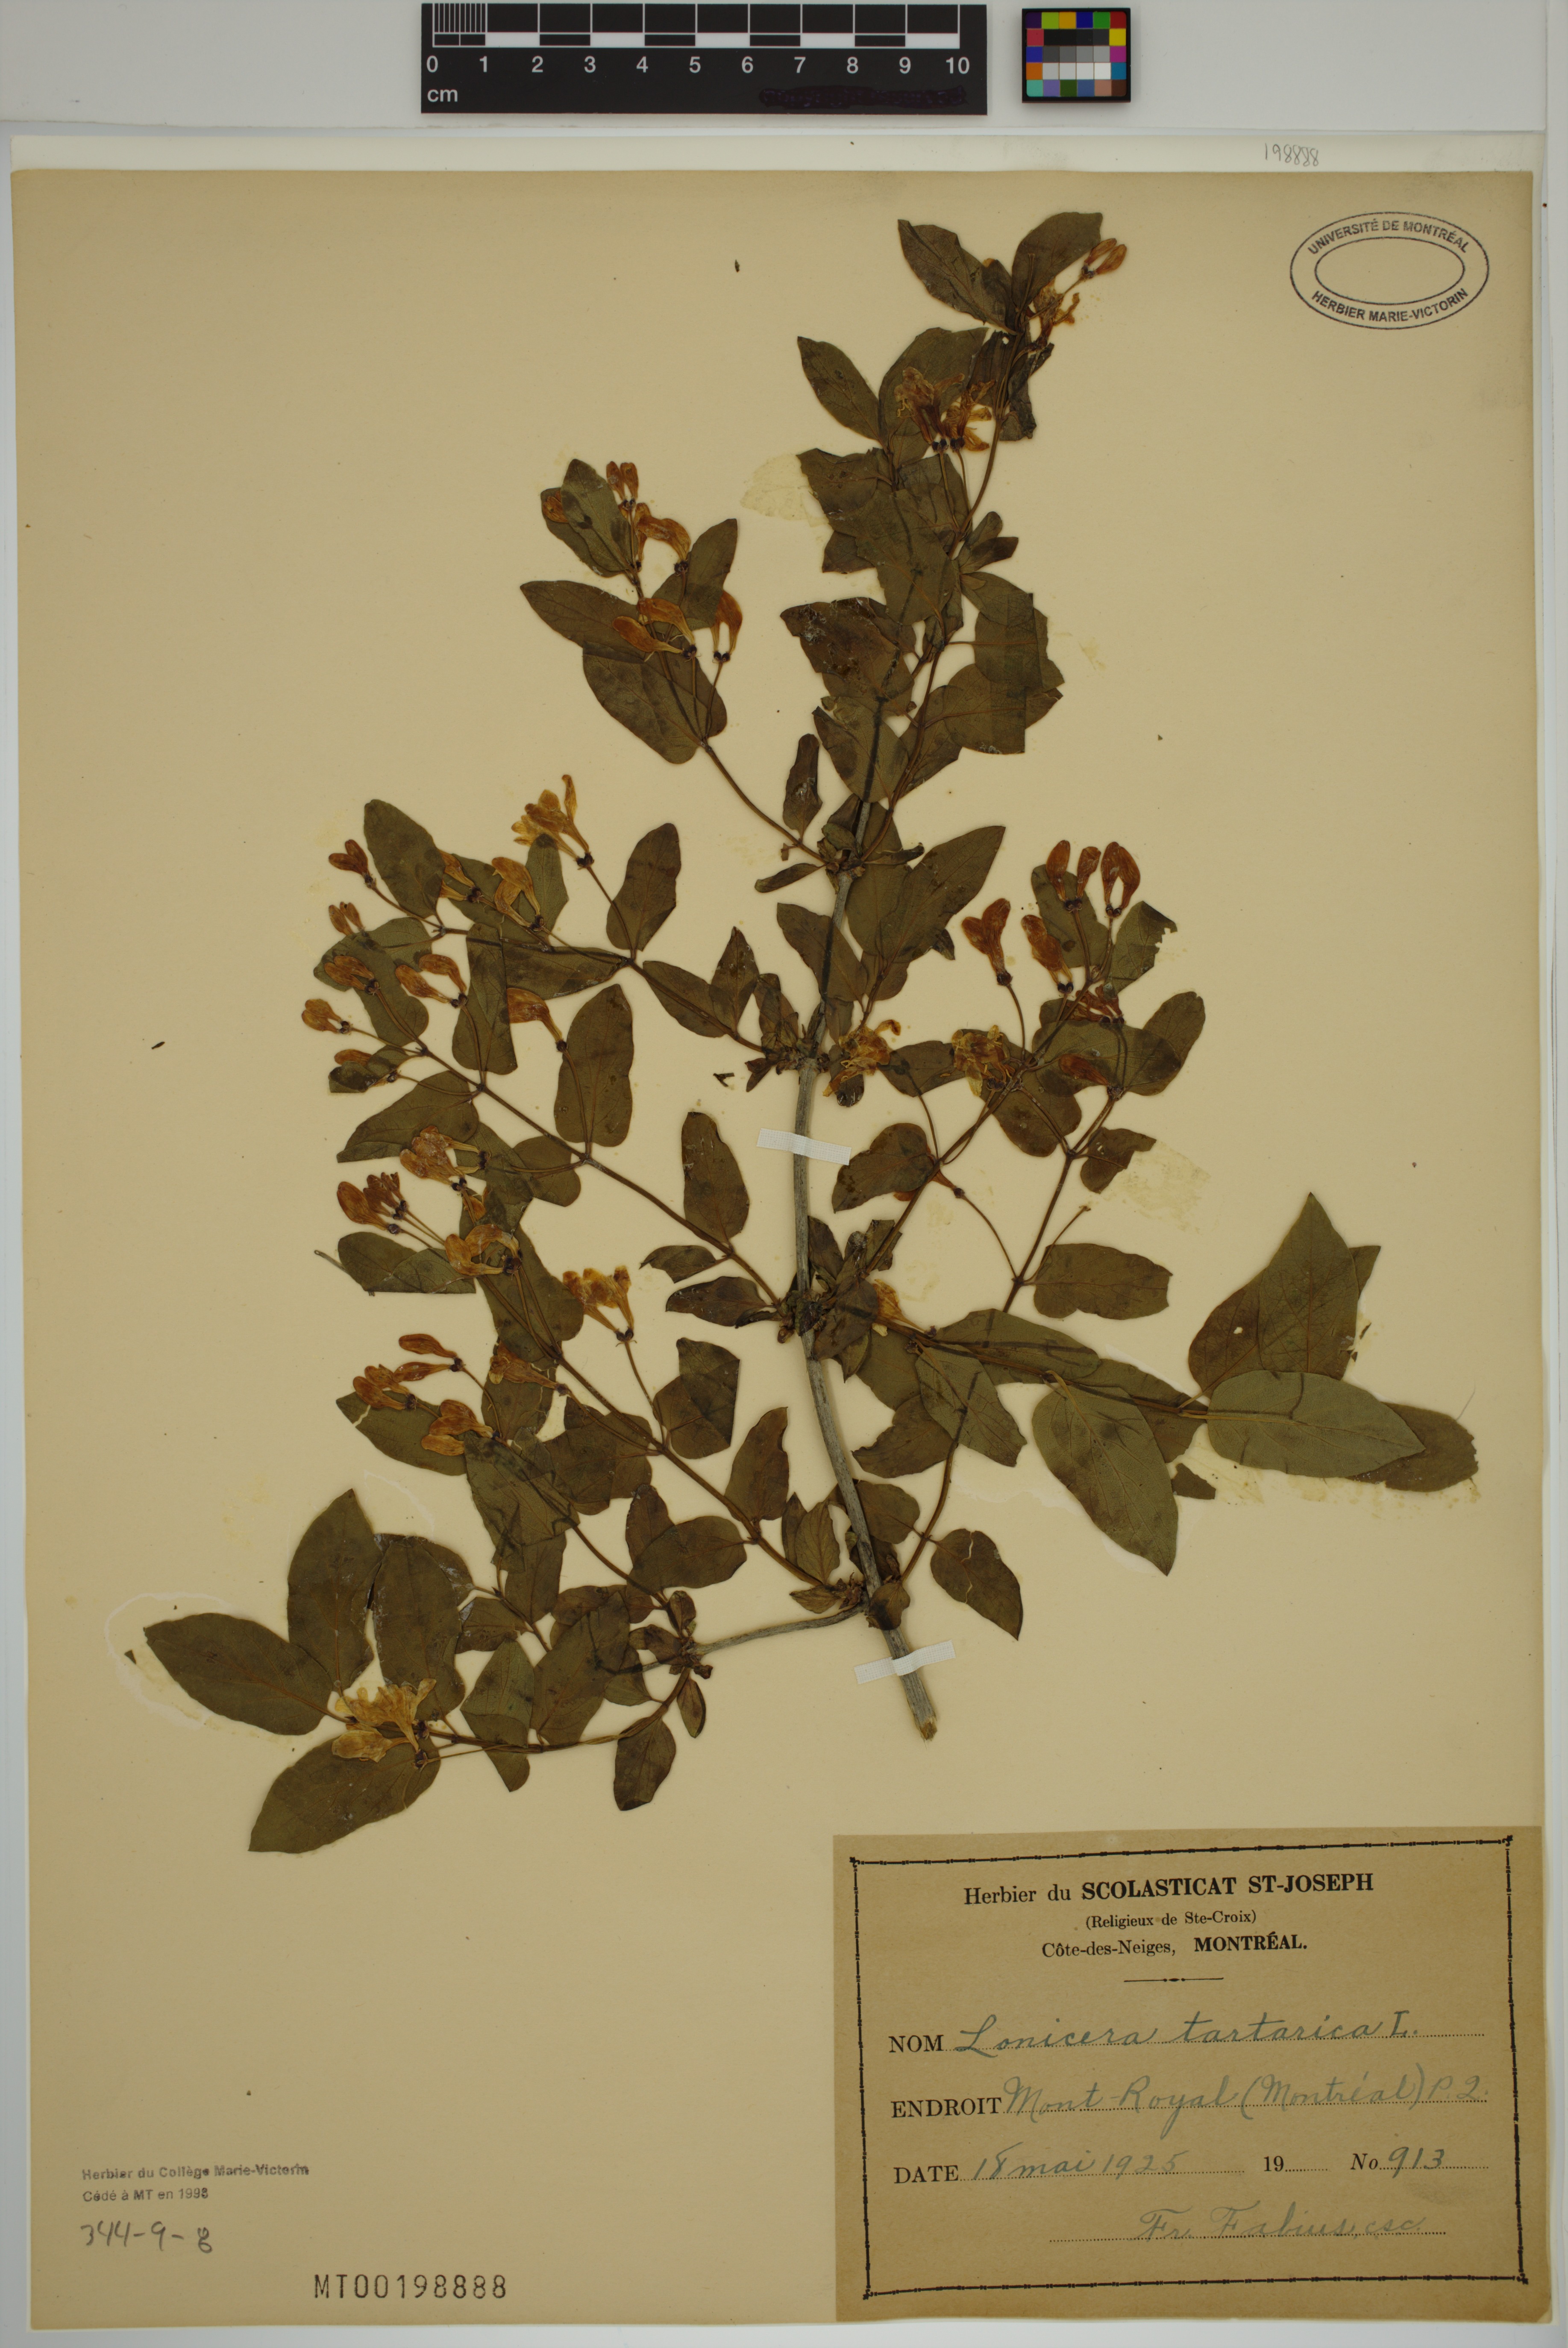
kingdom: Plantae
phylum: Tracheophyta
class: Magnoliopsida
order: Dipsacales
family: Caprifoliaceae
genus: Lonicera
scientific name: Lonicera tatarica
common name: Tatarian honeysuckle
